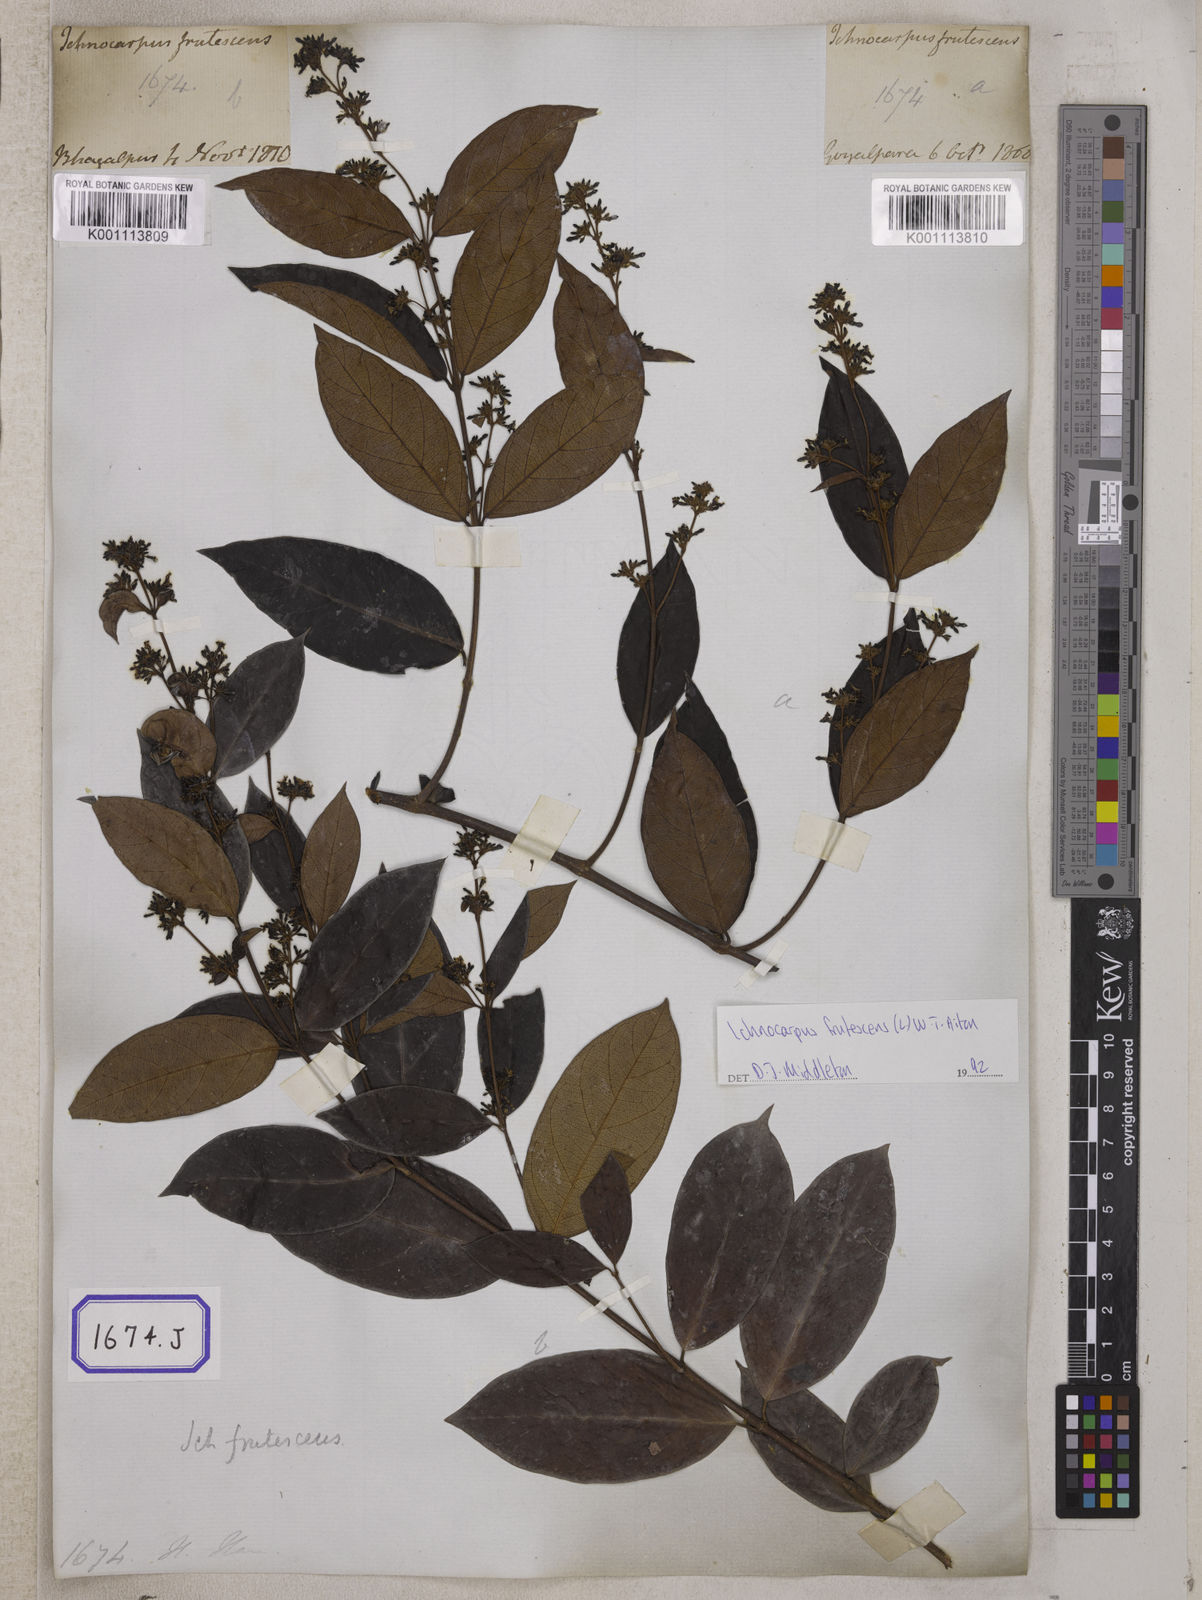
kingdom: Plantae
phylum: Tracheophyta
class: Magnoliopsida
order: Gentianales
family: Apocynaceae
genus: Ichnocarpus
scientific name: Ichnocarpus
